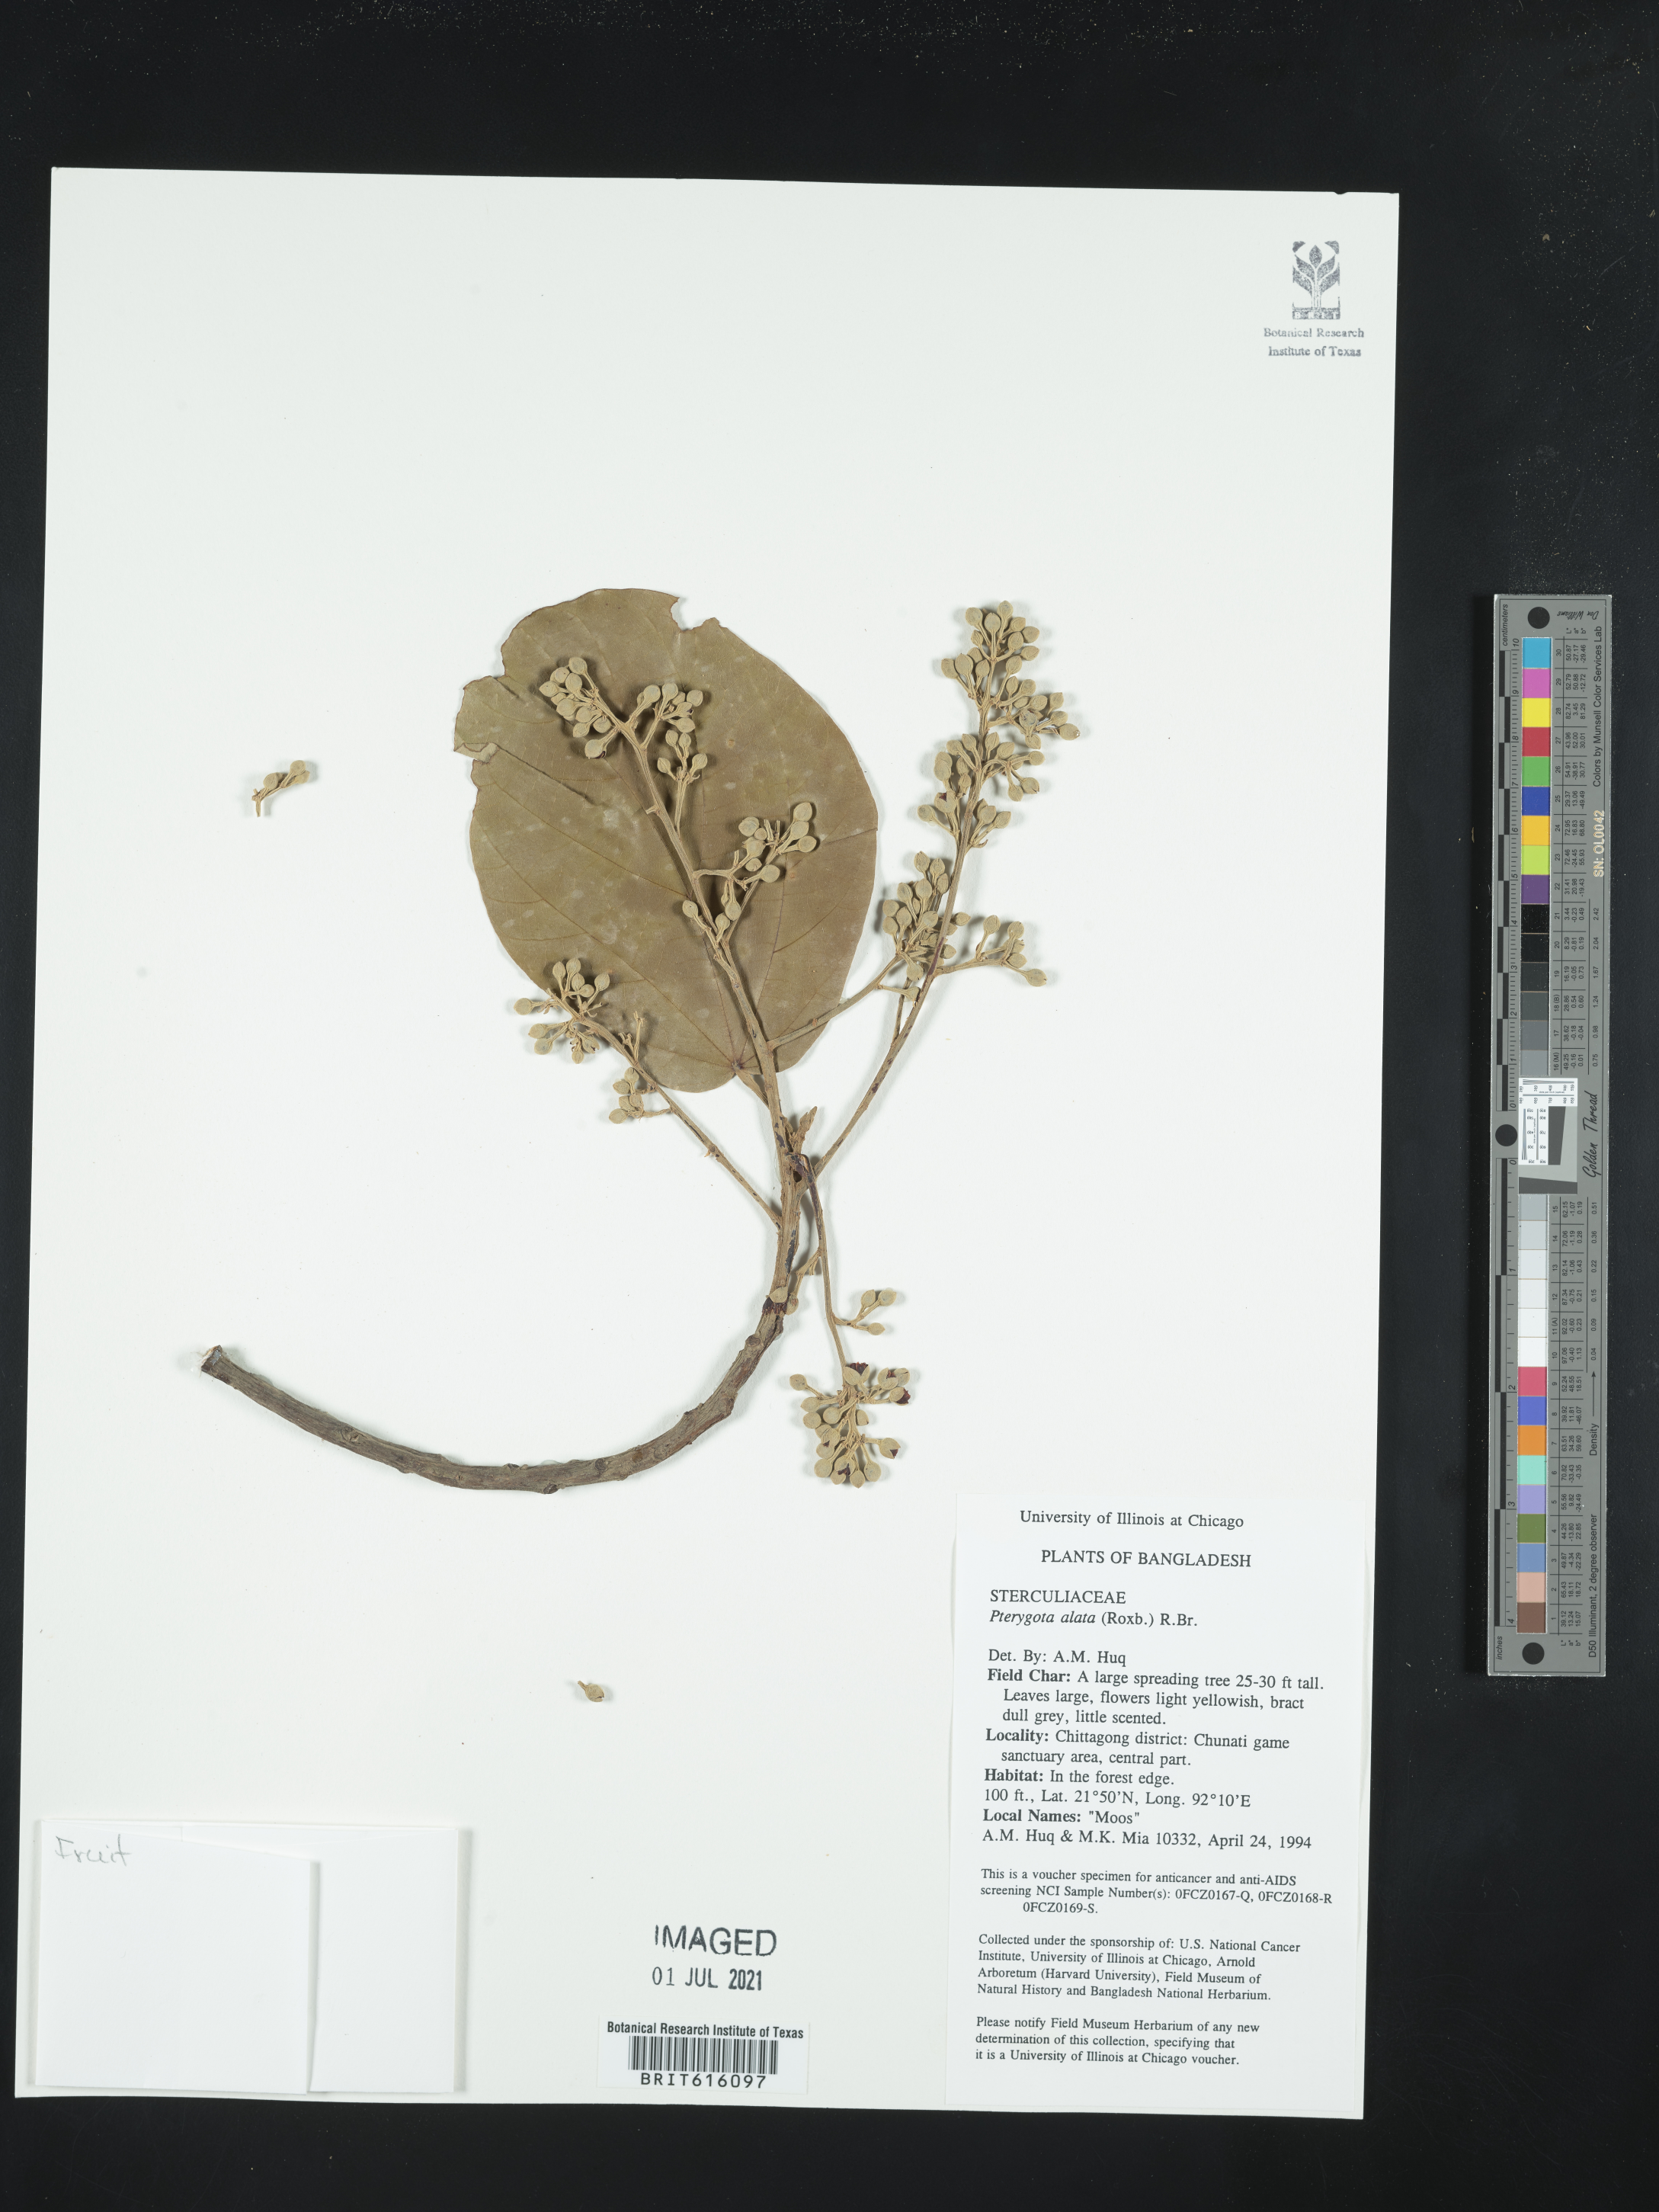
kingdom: Plantae
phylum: Tracheophyta
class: Magnoliopsida
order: Malvales
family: Malvaceae
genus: Pterygota
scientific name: Pterygota alata
